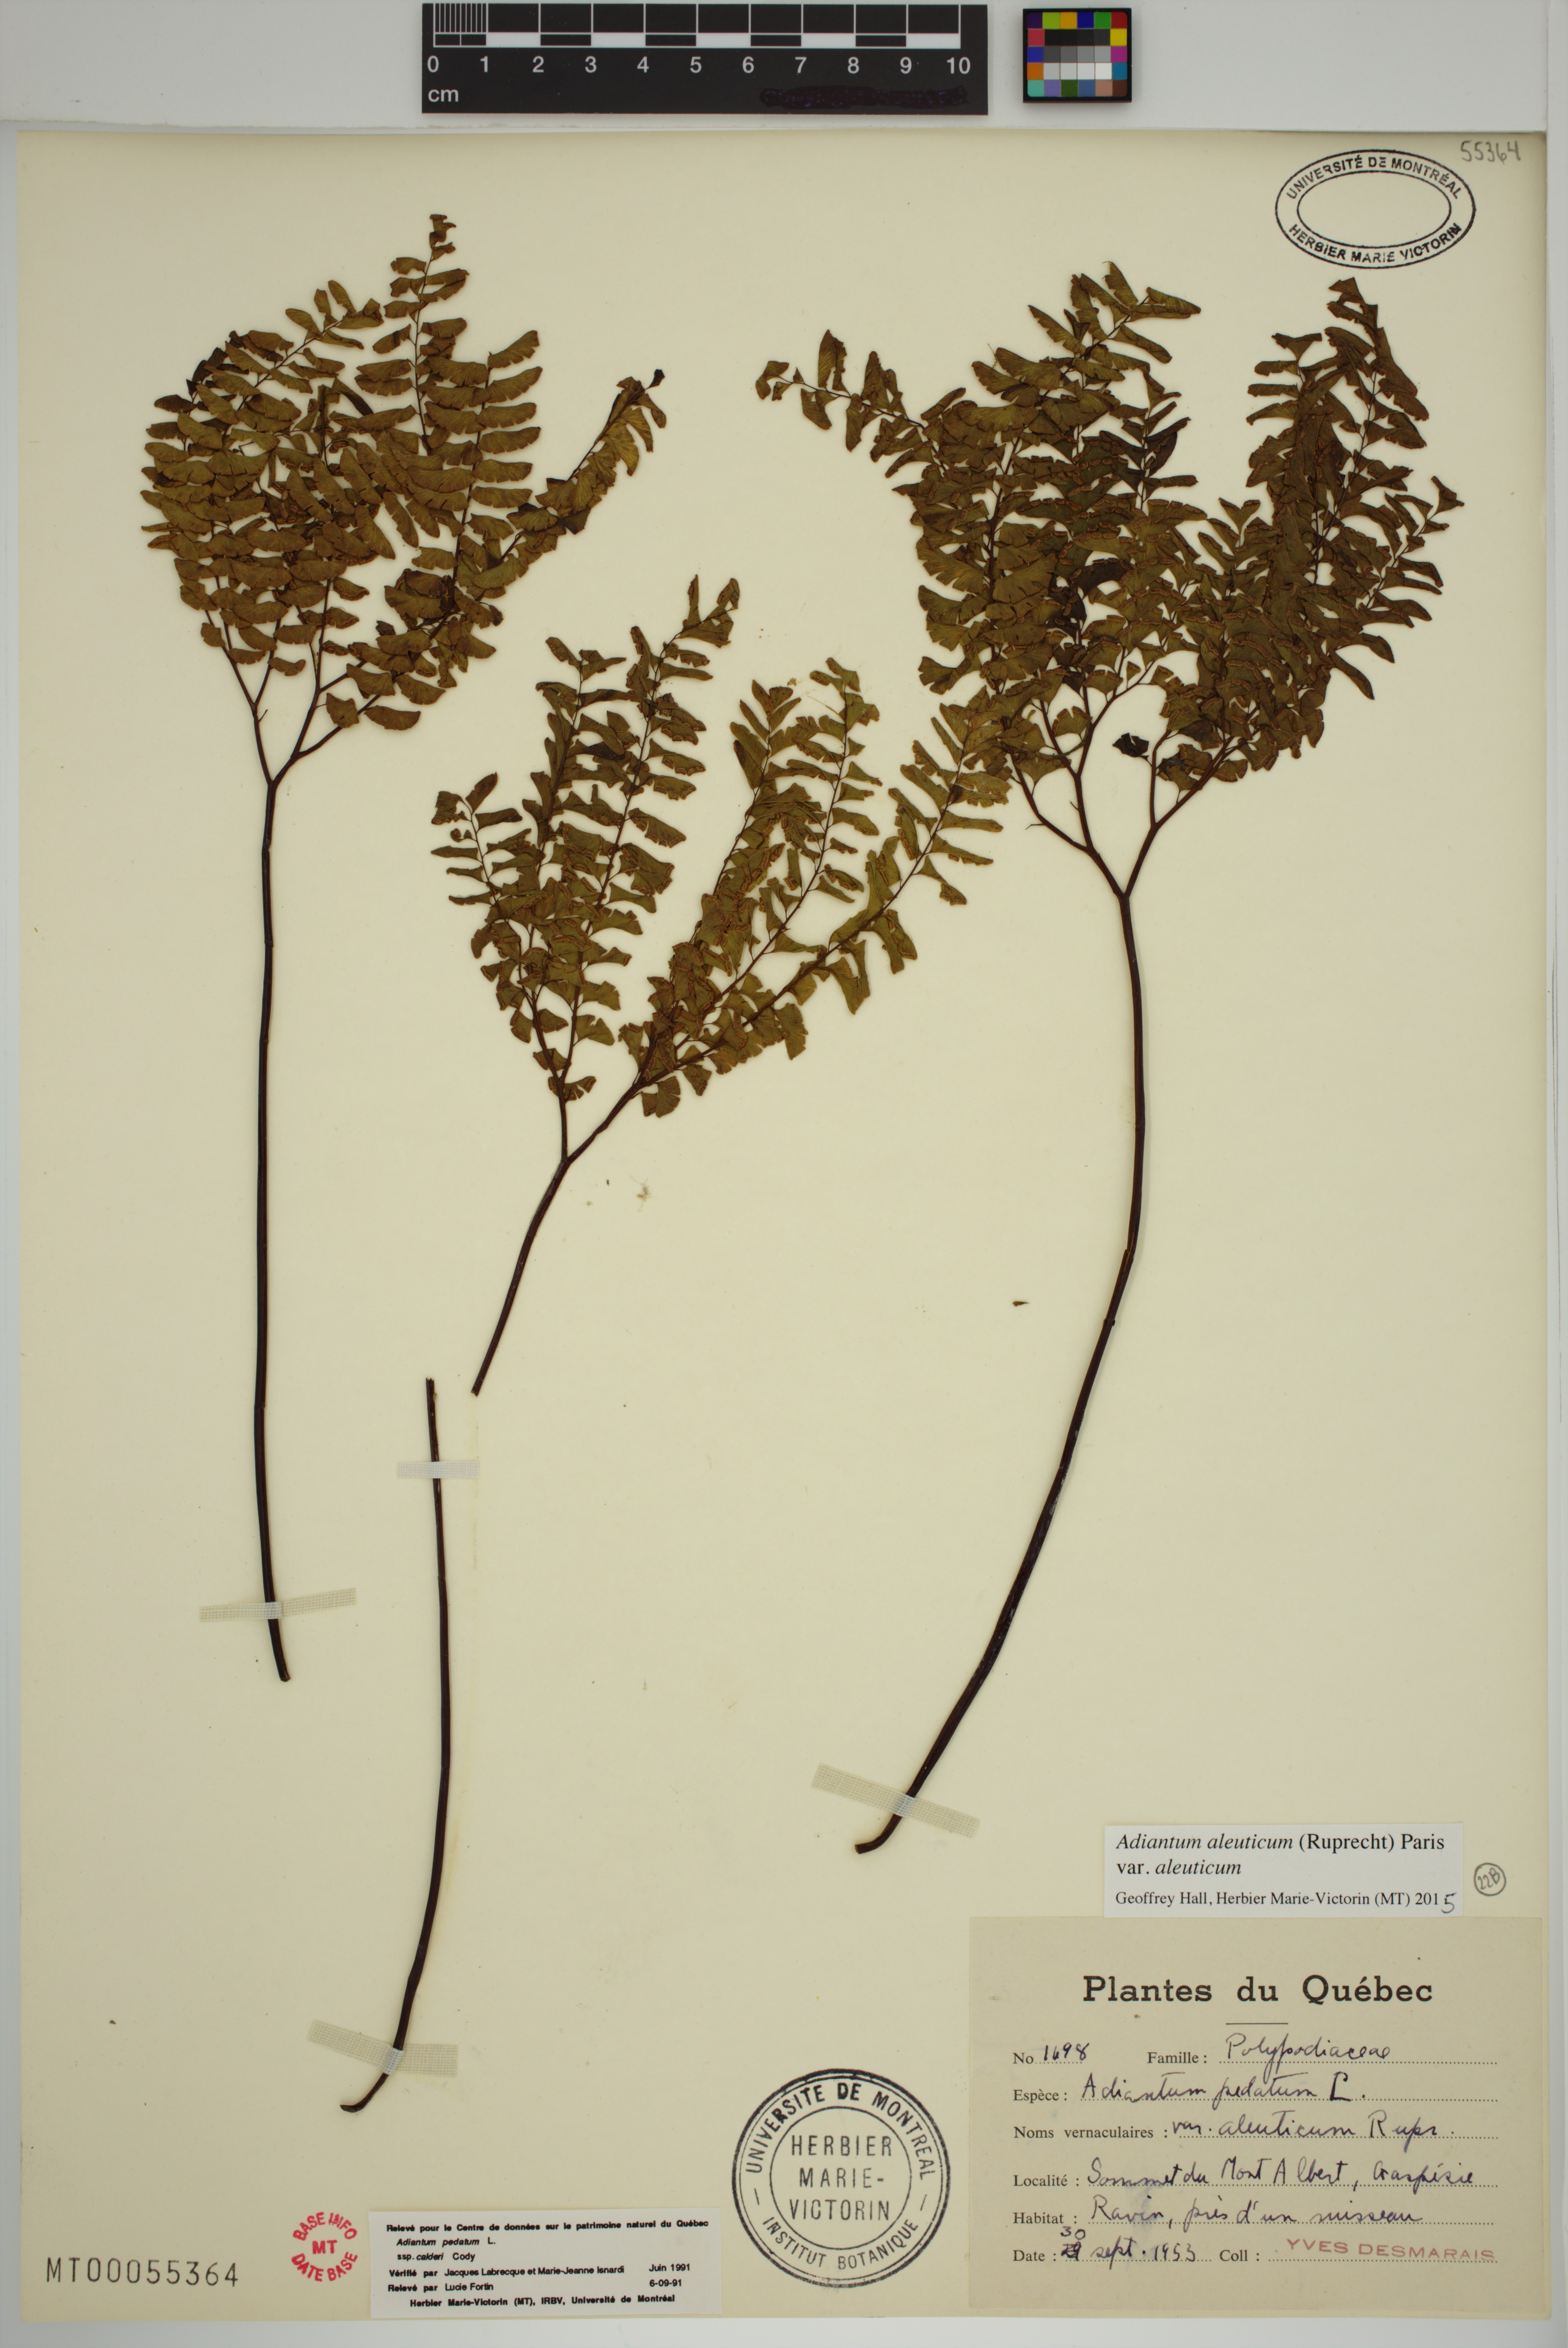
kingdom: Plantae
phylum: Tracheophyta
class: Polypodiopsida
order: Polypodiales
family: Pteridaceae
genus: Adiantum
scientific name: Adiantum aleuticum
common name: Aleutian maidenhair fern
